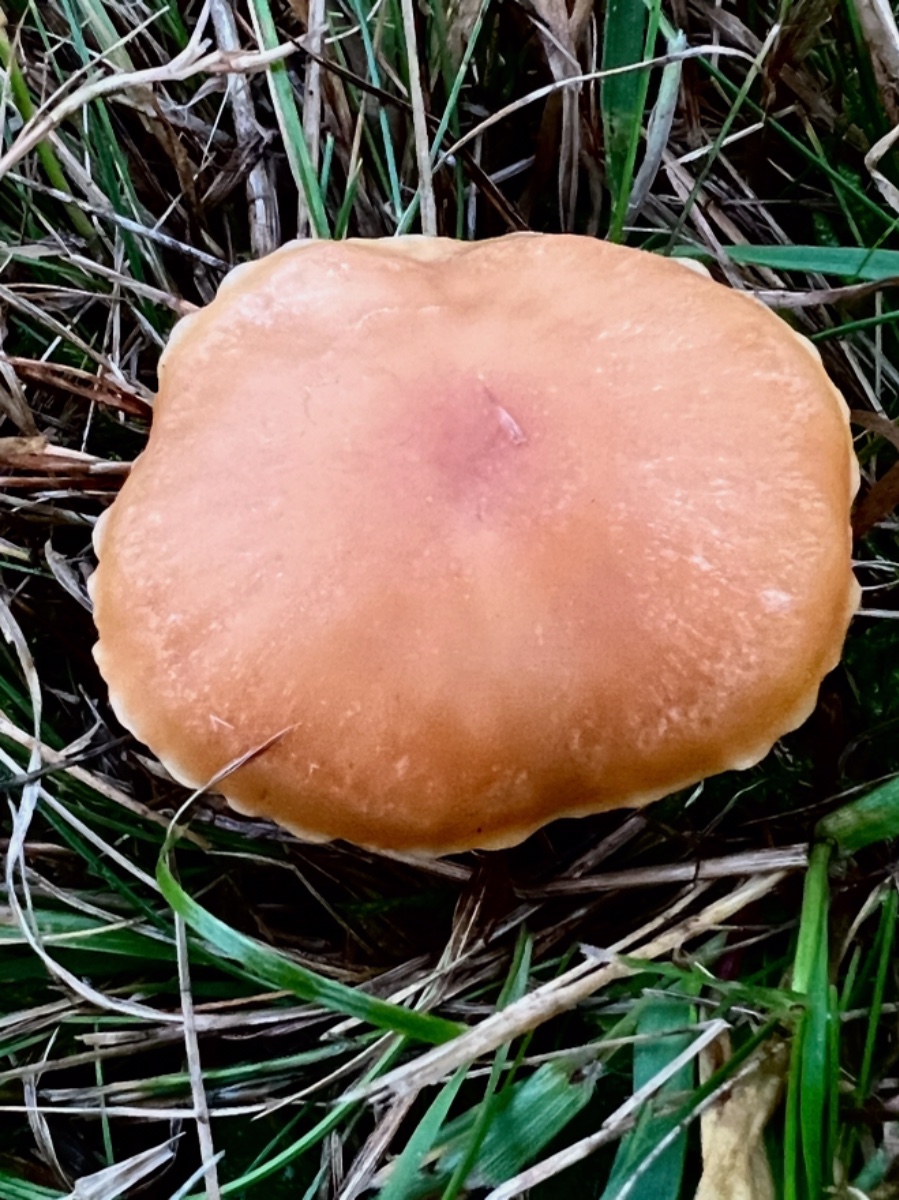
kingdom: Fungi
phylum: Basidiomycota
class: Agaricomycetes
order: Agaricales
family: Hygrophoraceae
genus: Cuphophyllus
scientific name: Cuphophyllus pratensis
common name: eng-vokshat
